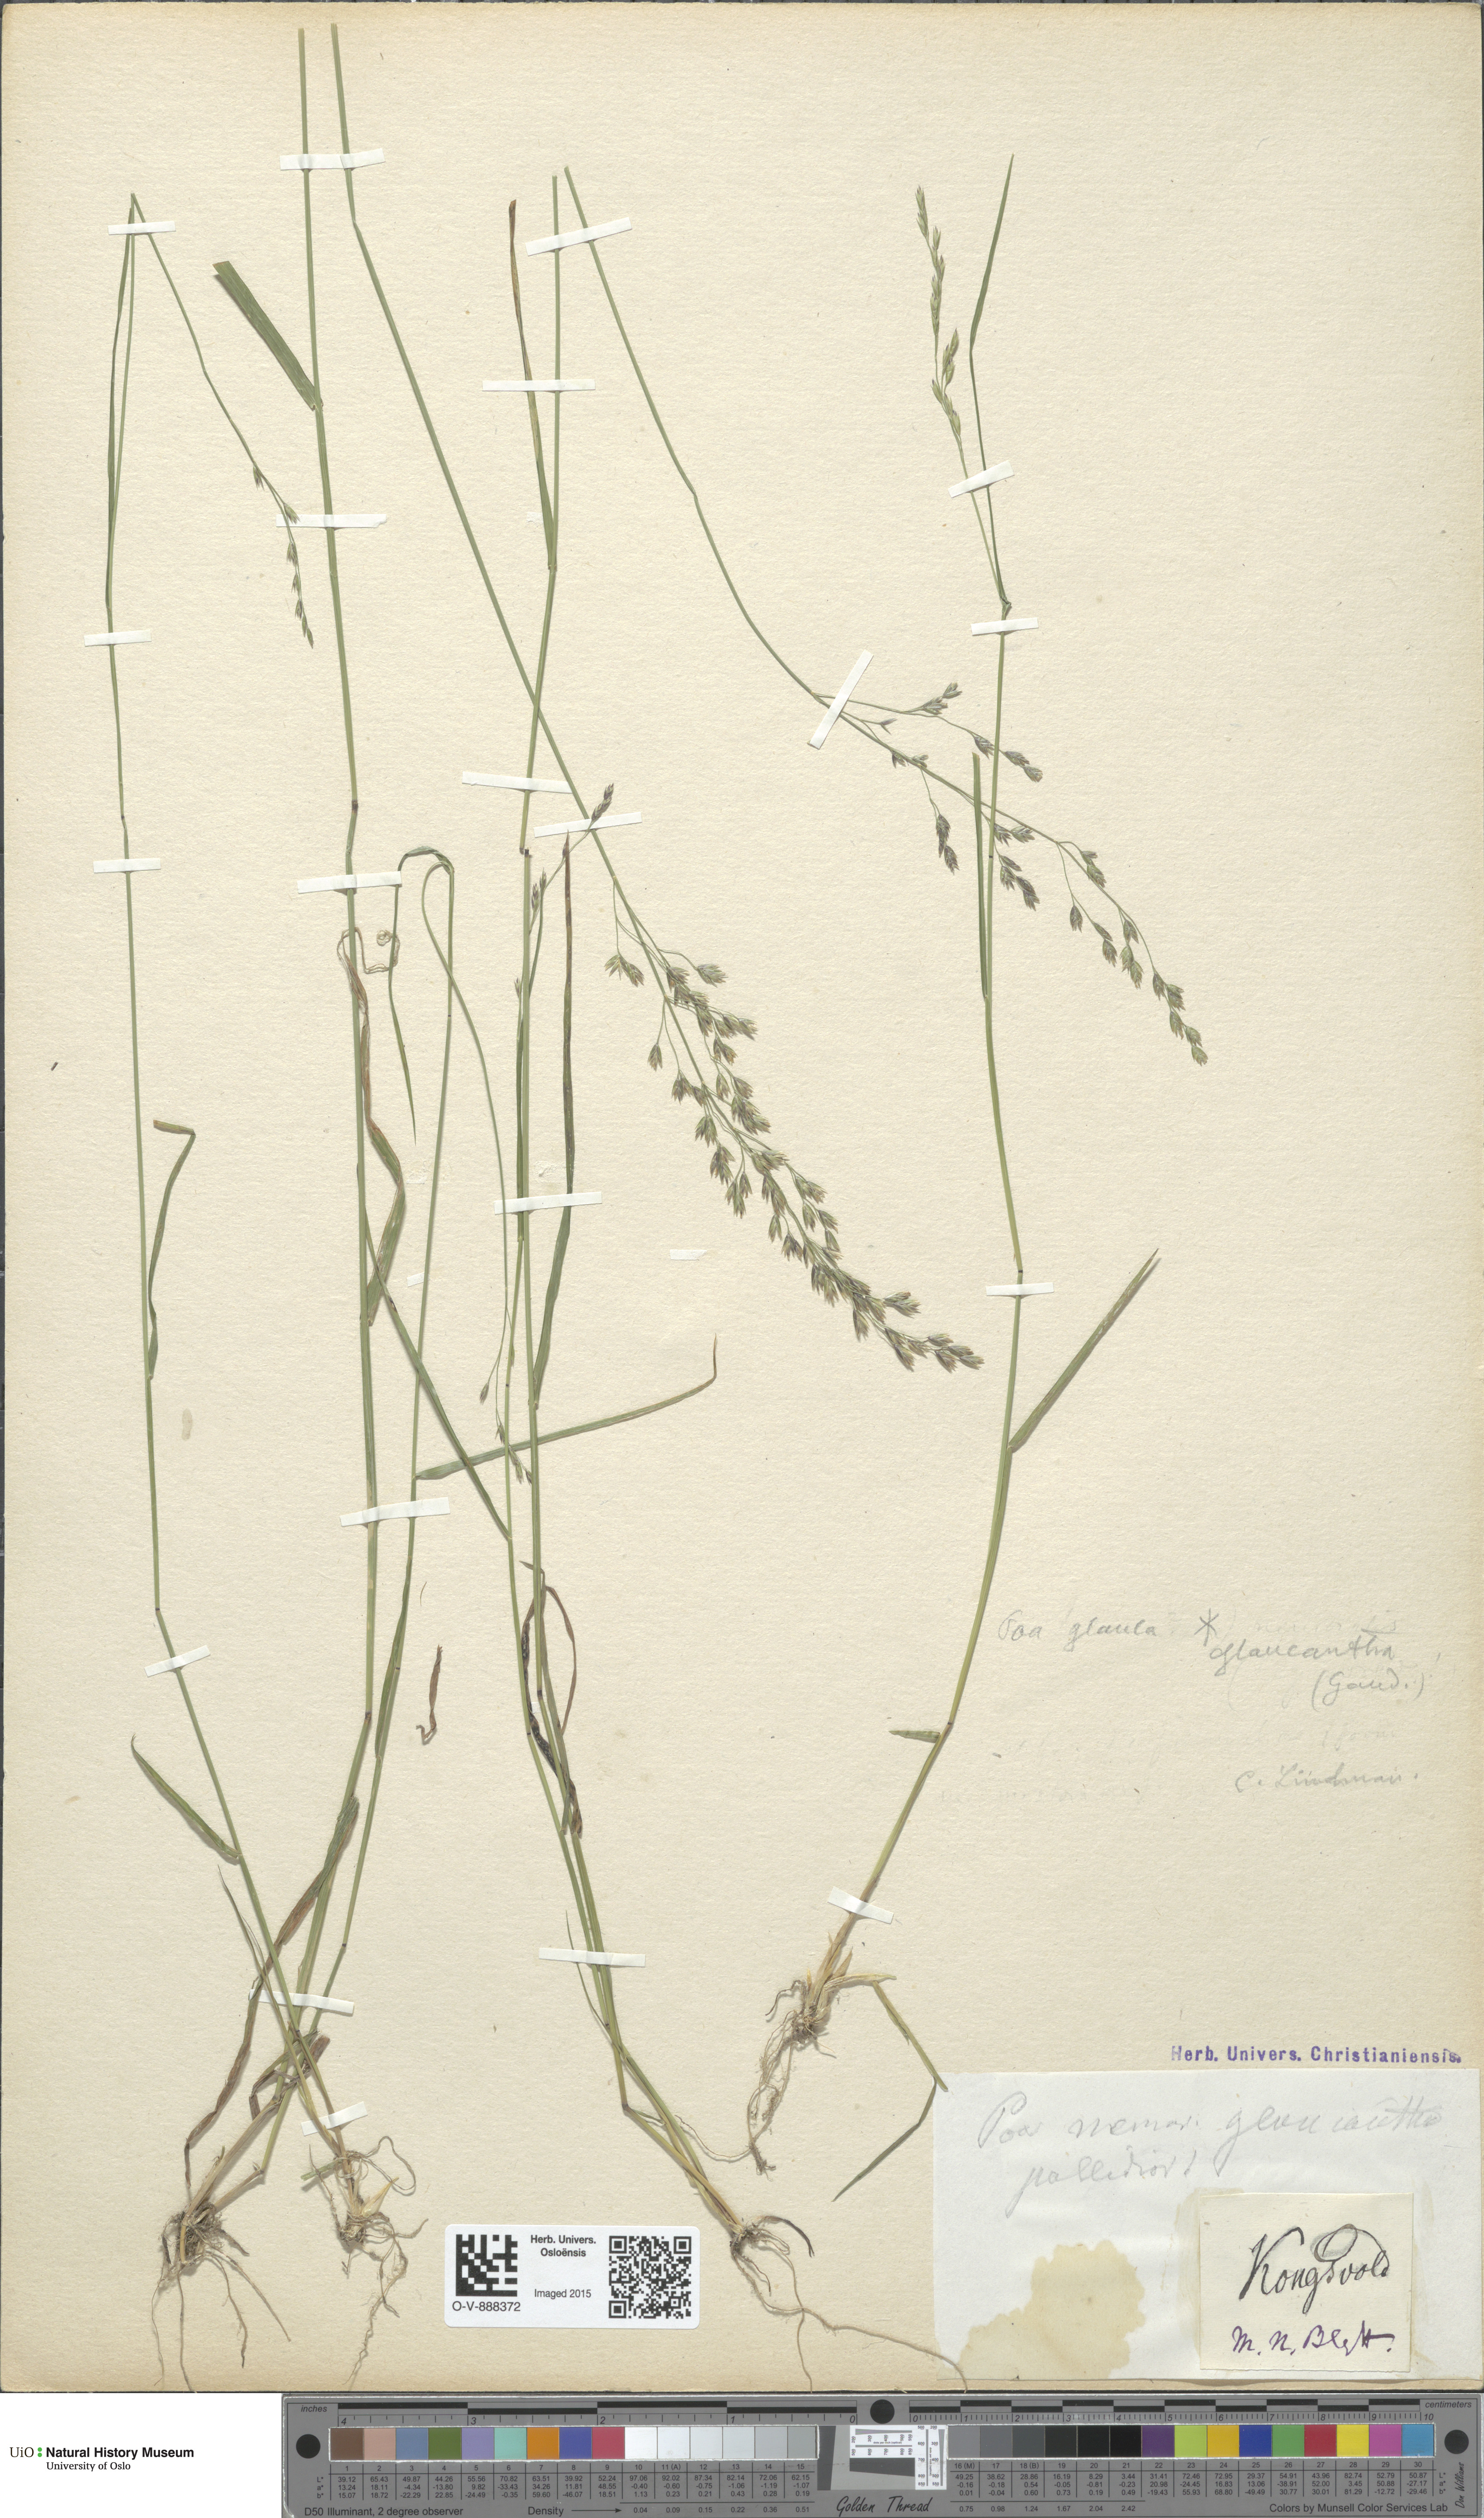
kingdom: Plantae
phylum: Tracheophyta
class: Liliopsida
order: Poales
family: Poaceae
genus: Poa
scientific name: Poa nemoralis
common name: Wood bluegrass
